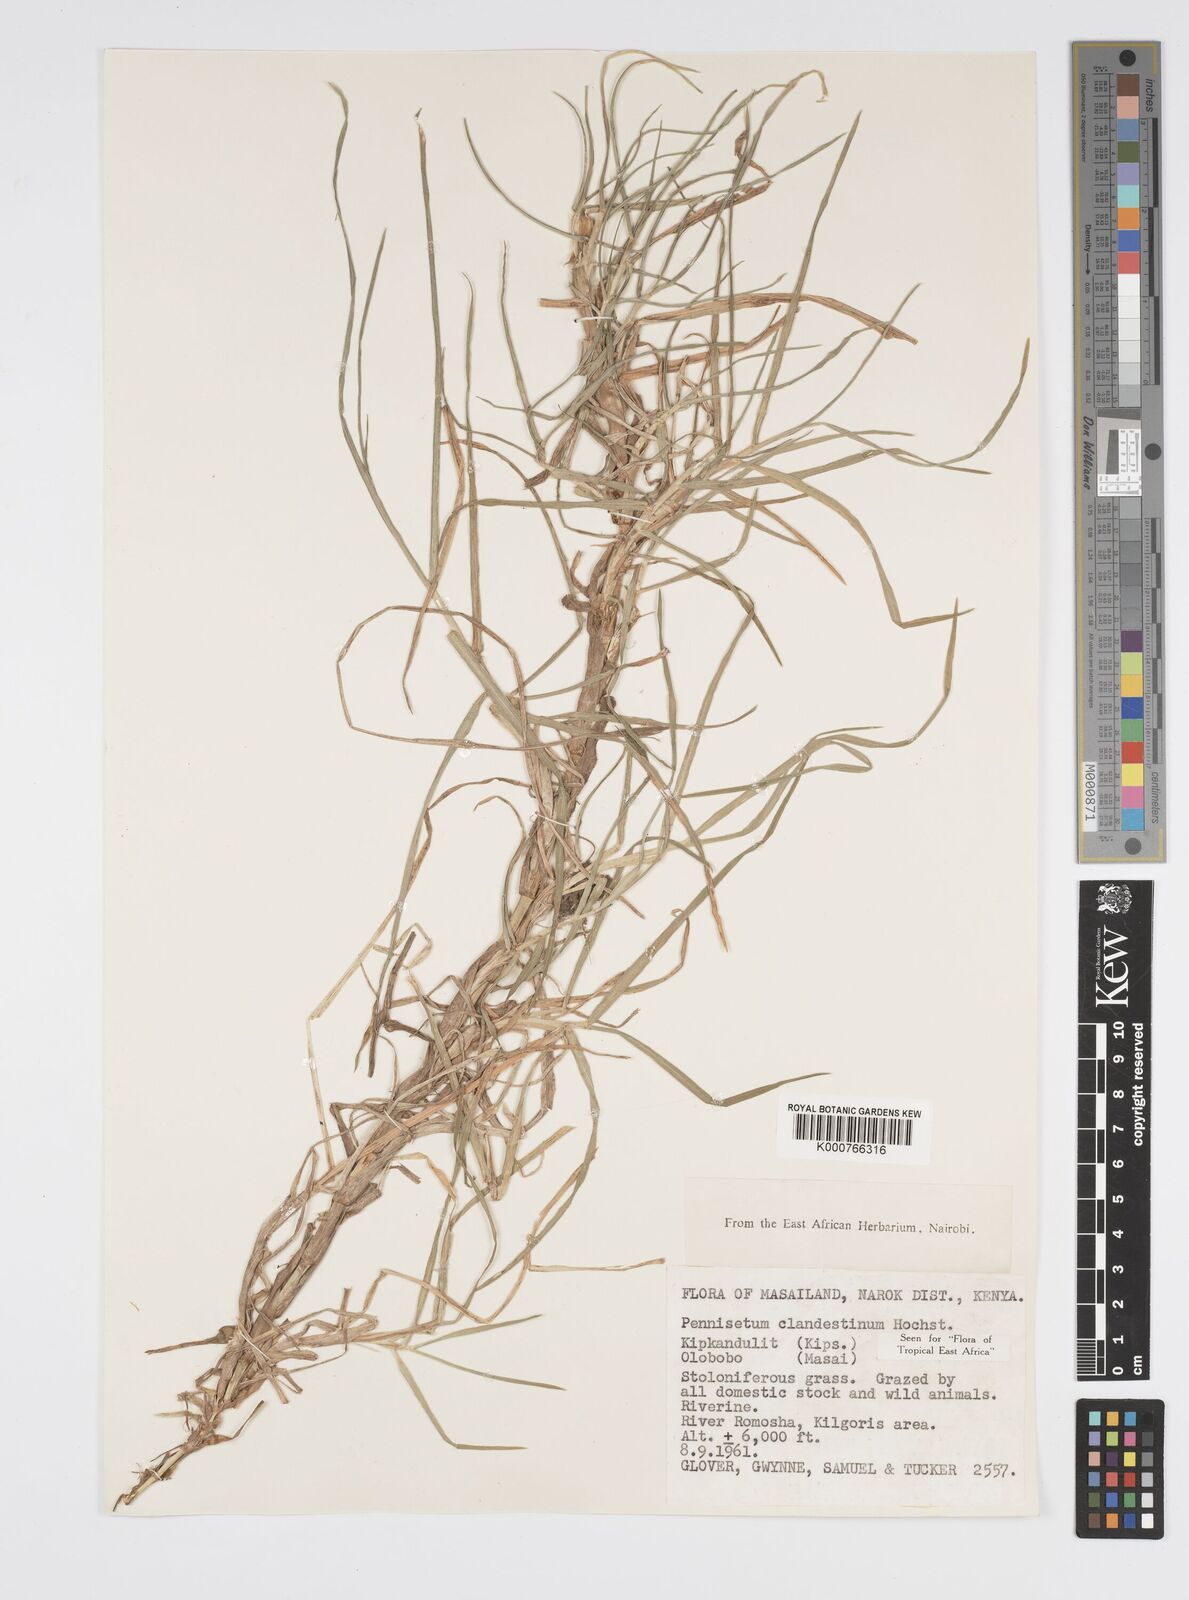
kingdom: Plantae
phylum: Tracheophyta
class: Liliopsida
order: Poales
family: Poaceae
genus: Cenchrus
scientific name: Cenchrus clandestinus
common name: Kikuyugrass
